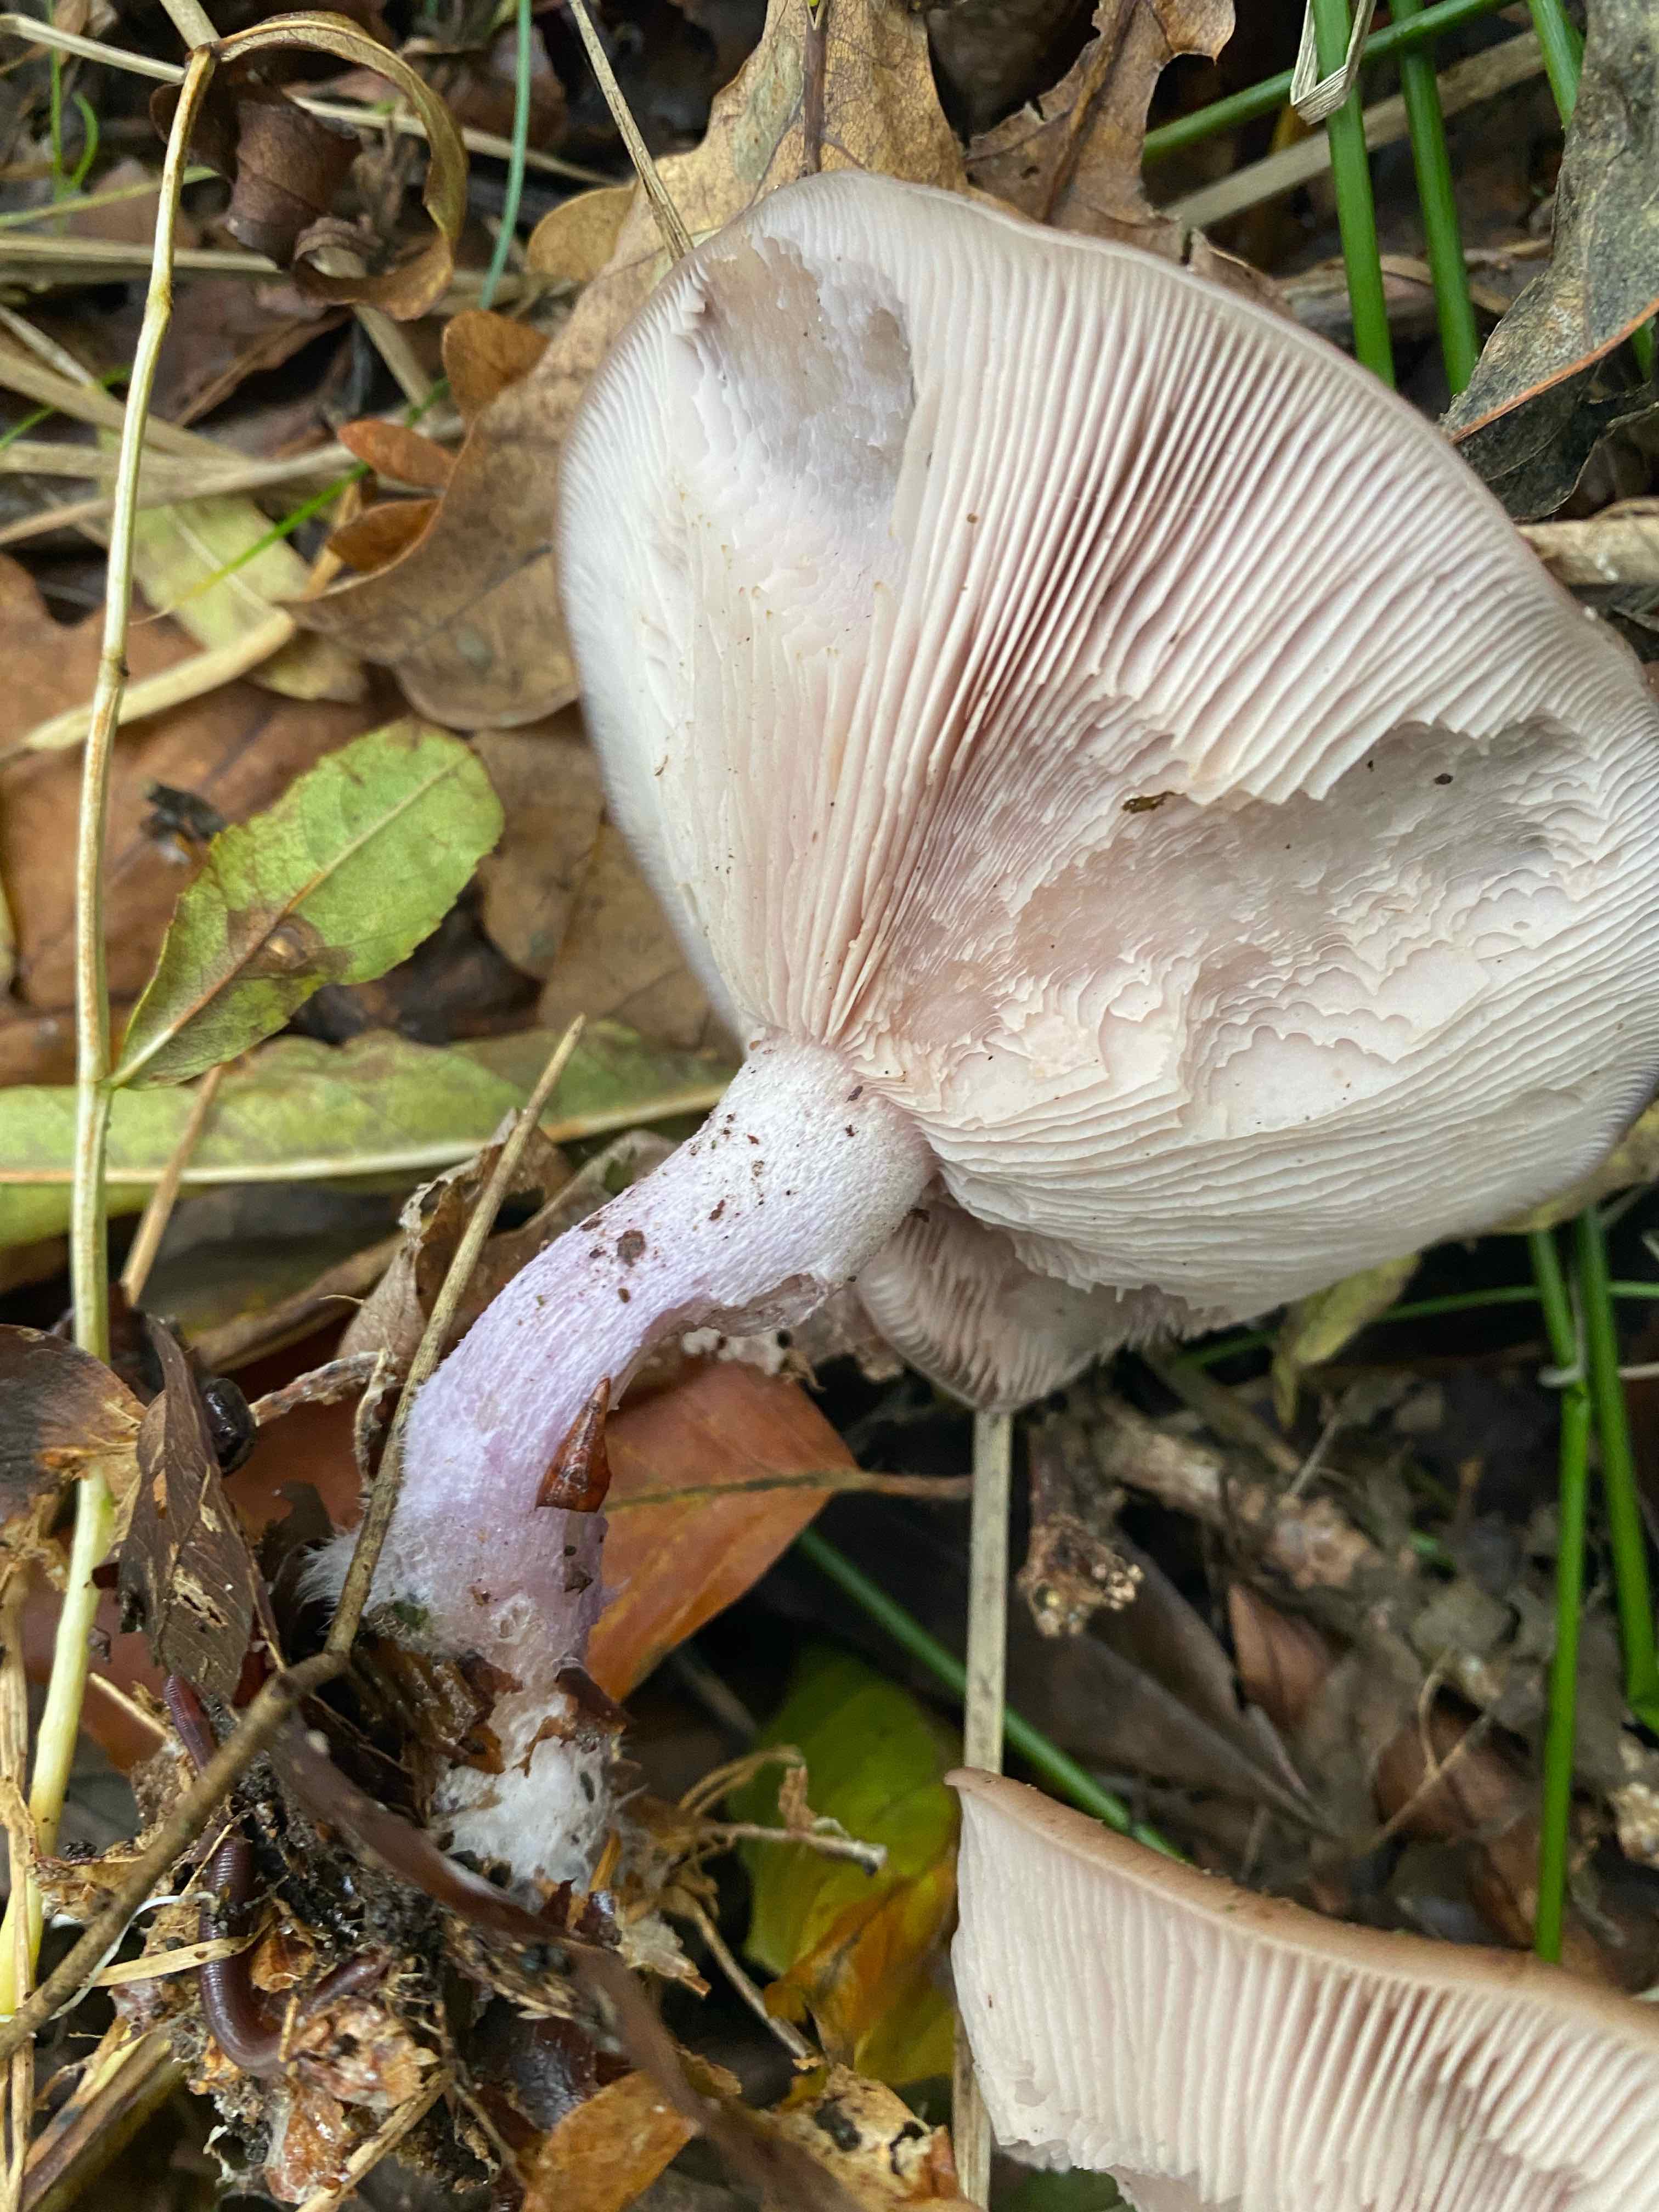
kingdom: Fungi
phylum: Basidiomycota
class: Agaricomycetes
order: Agaricales
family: Tricholomataceae
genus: Lepista
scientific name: Lepista
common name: hekseringshat
